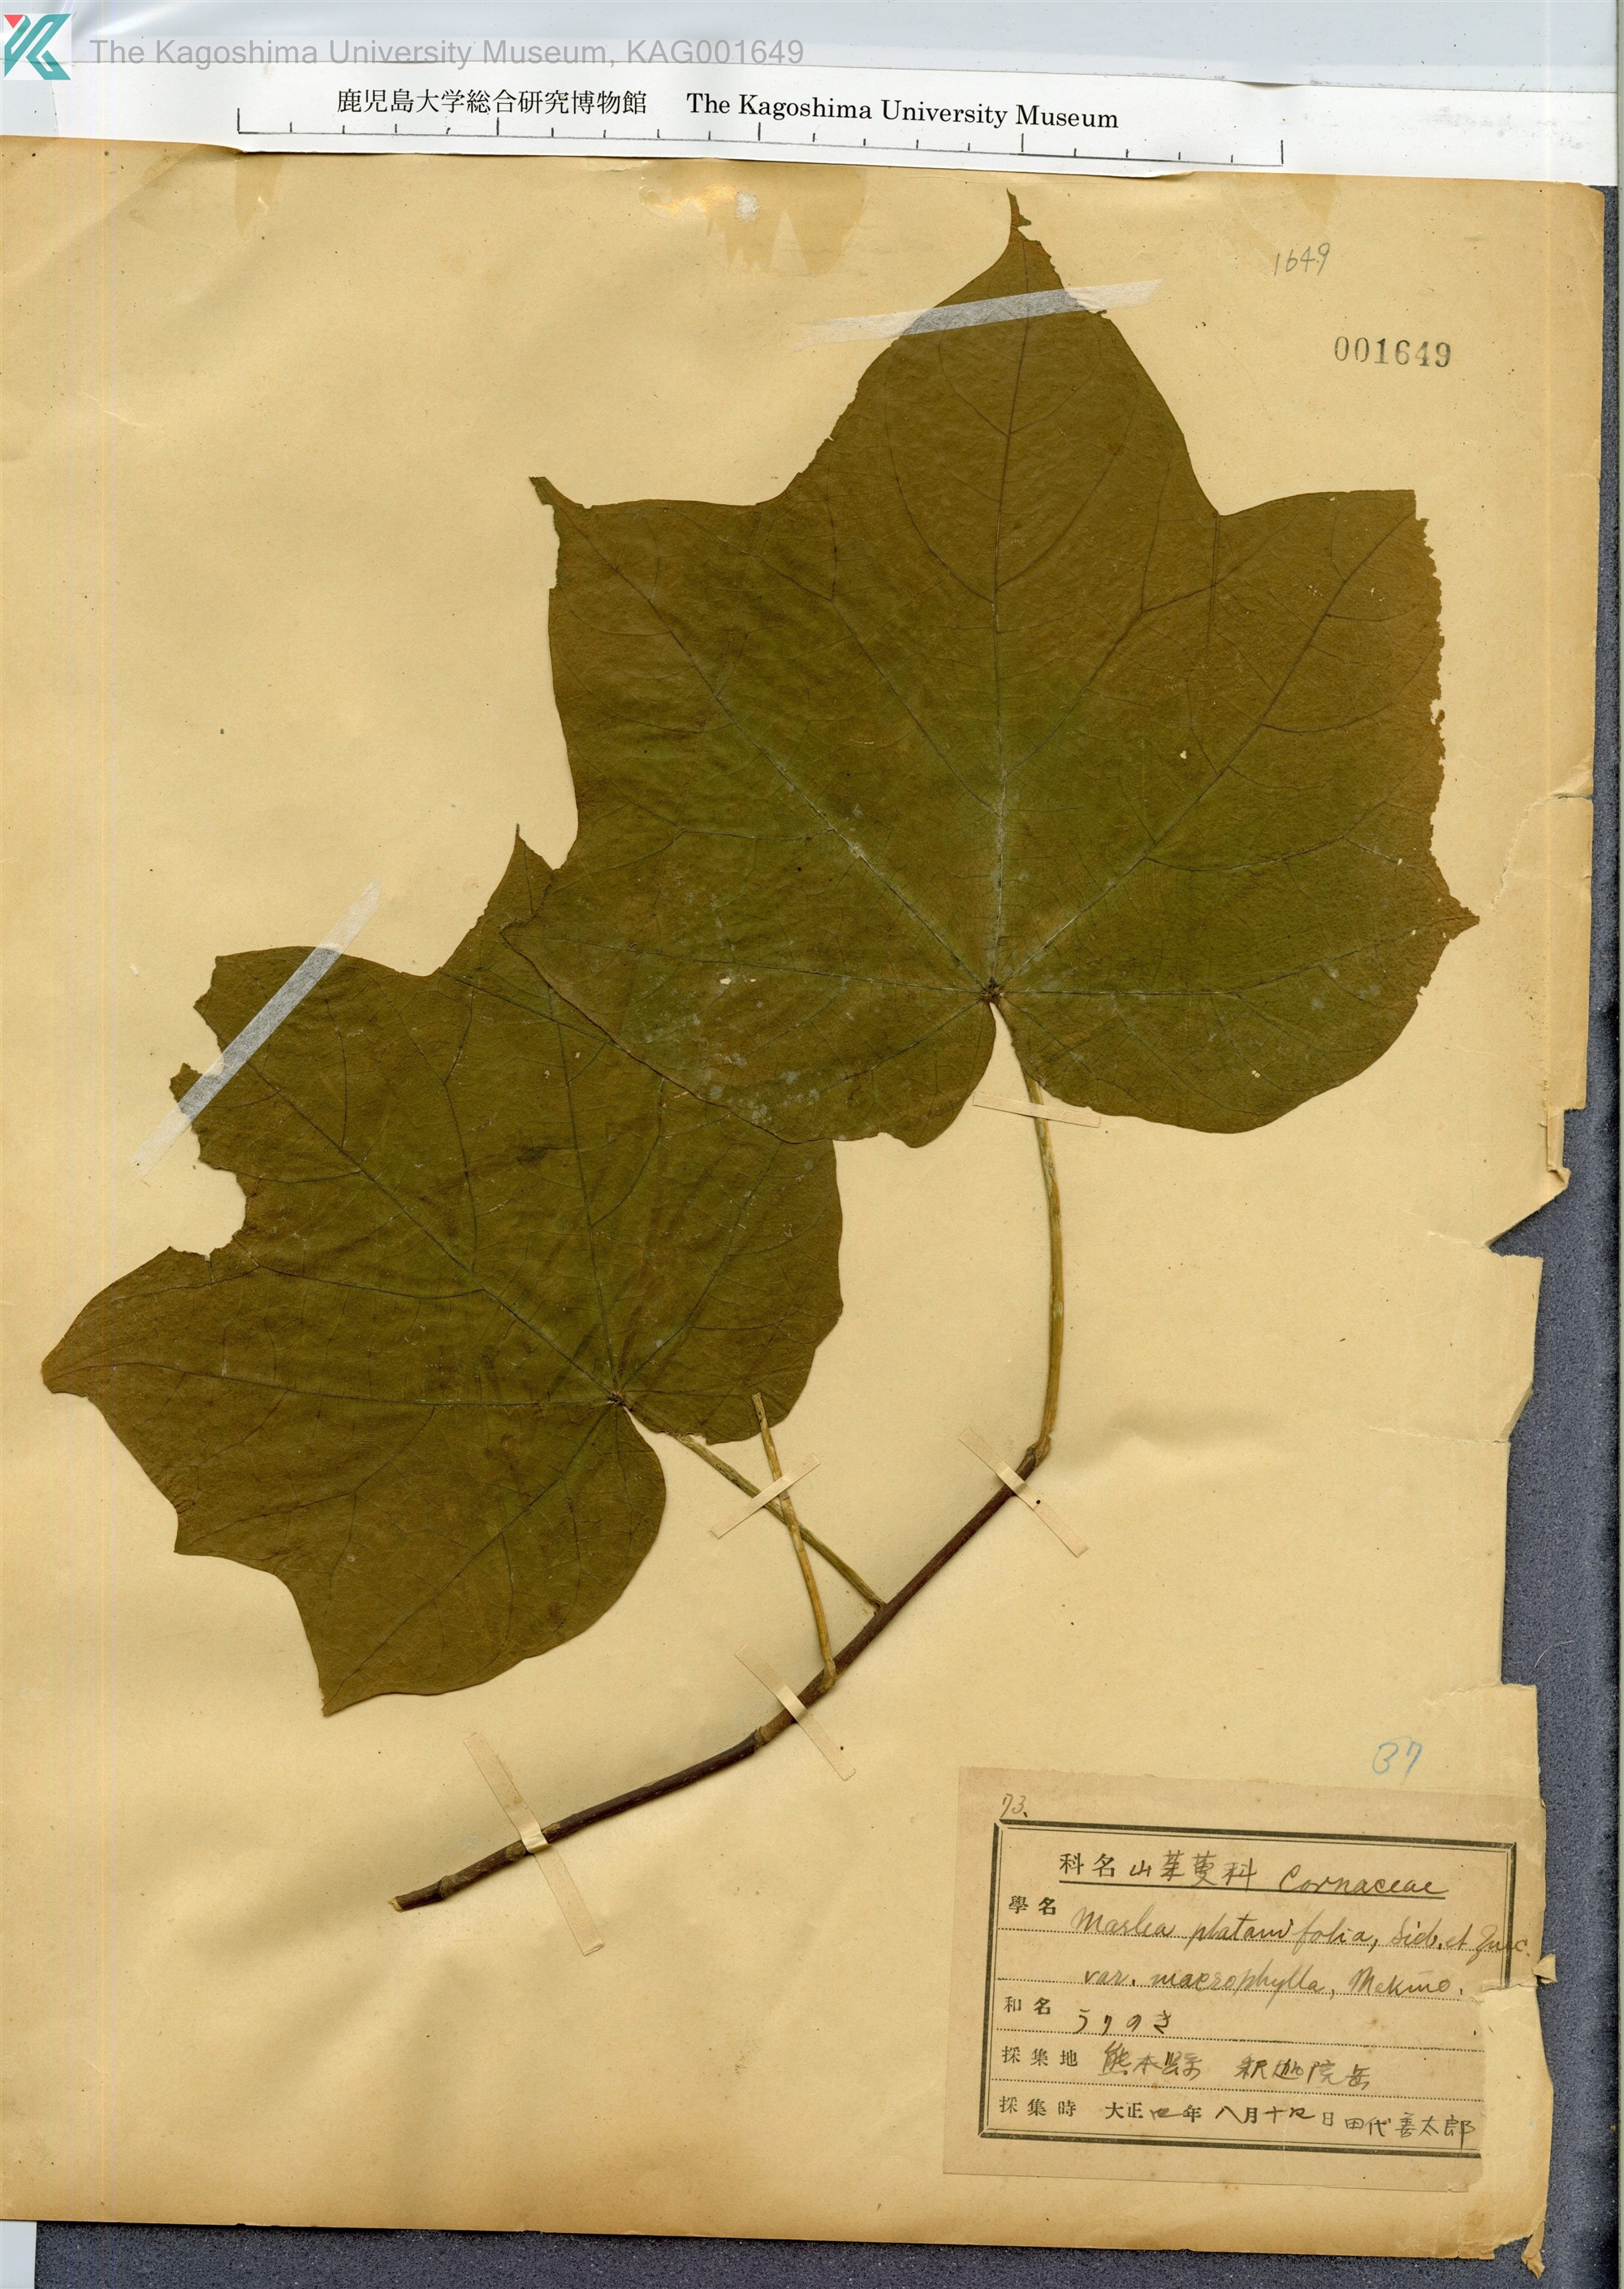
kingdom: Plantae
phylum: Tracheophyta
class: Magnoliopsida
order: Cornales
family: Cornaceae
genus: Alangium
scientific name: Alangium platanifolium
